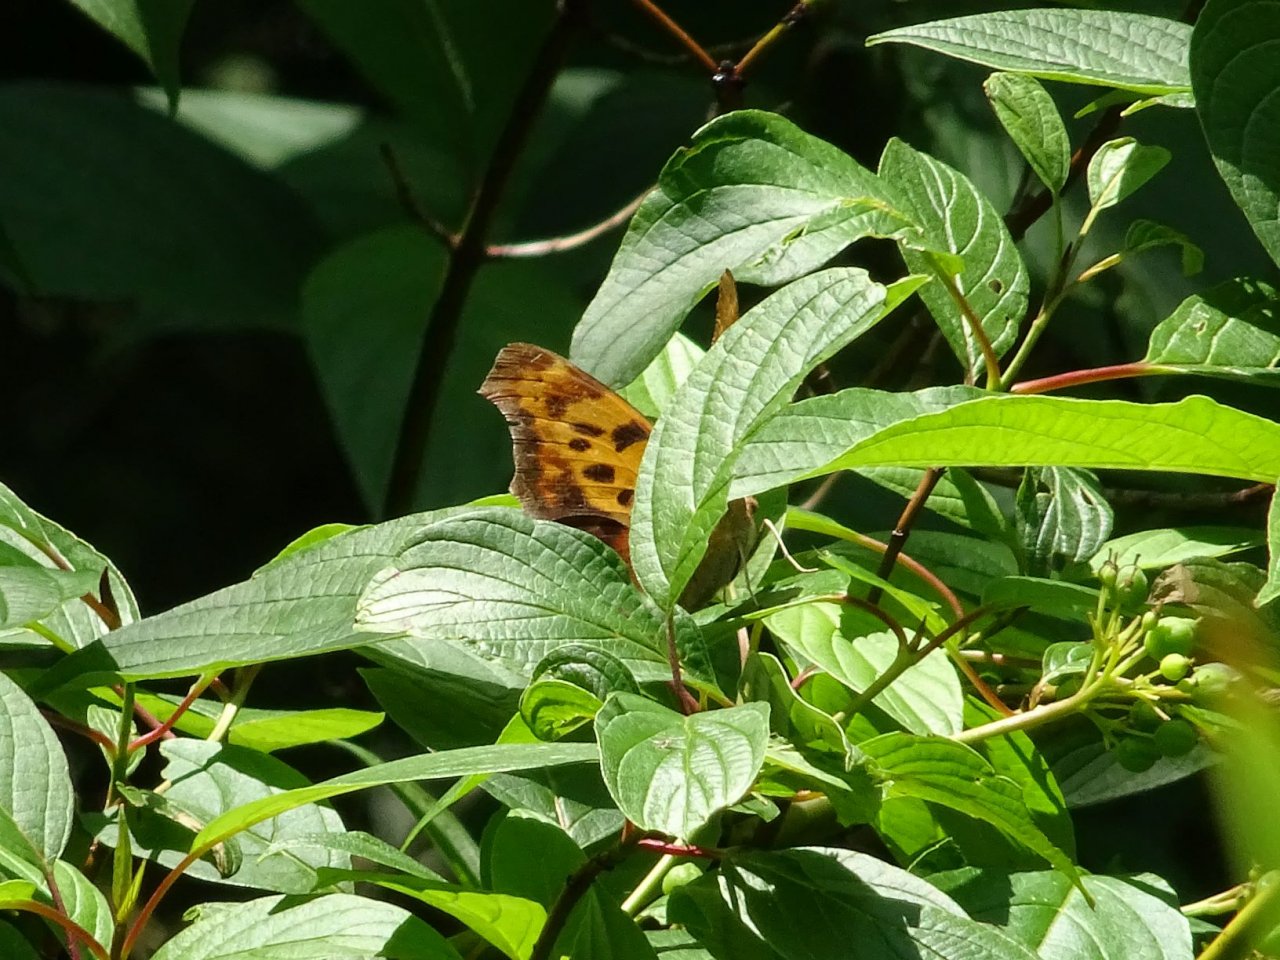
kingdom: Animalia
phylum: Arthropoda
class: Insecta
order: Lepidoptera
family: Nymphalidae
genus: Polygonia
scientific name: Polygonia interrogationis
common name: Question Mark
